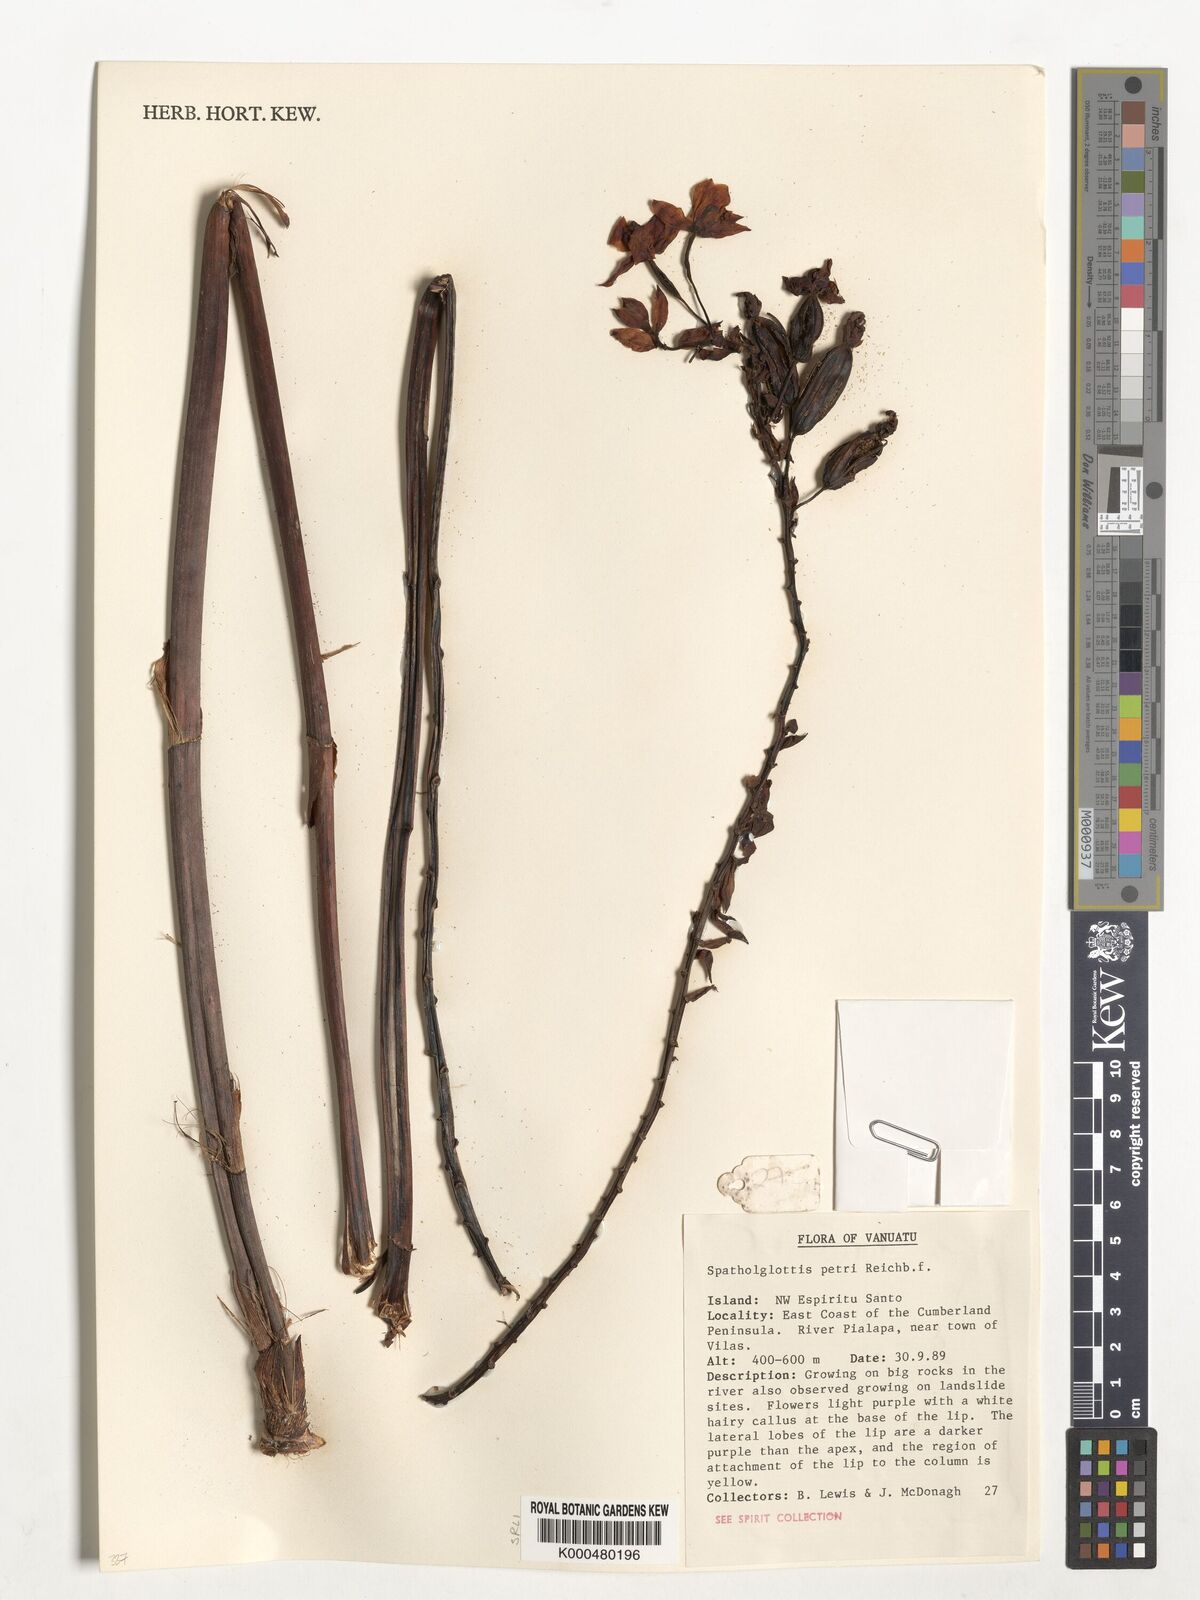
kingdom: Plantae
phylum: Tracheophyta
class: Liliopsida
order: Asparagales
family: Orchidaceae
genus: Spathoglottis
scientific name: Spathoglottis petri
